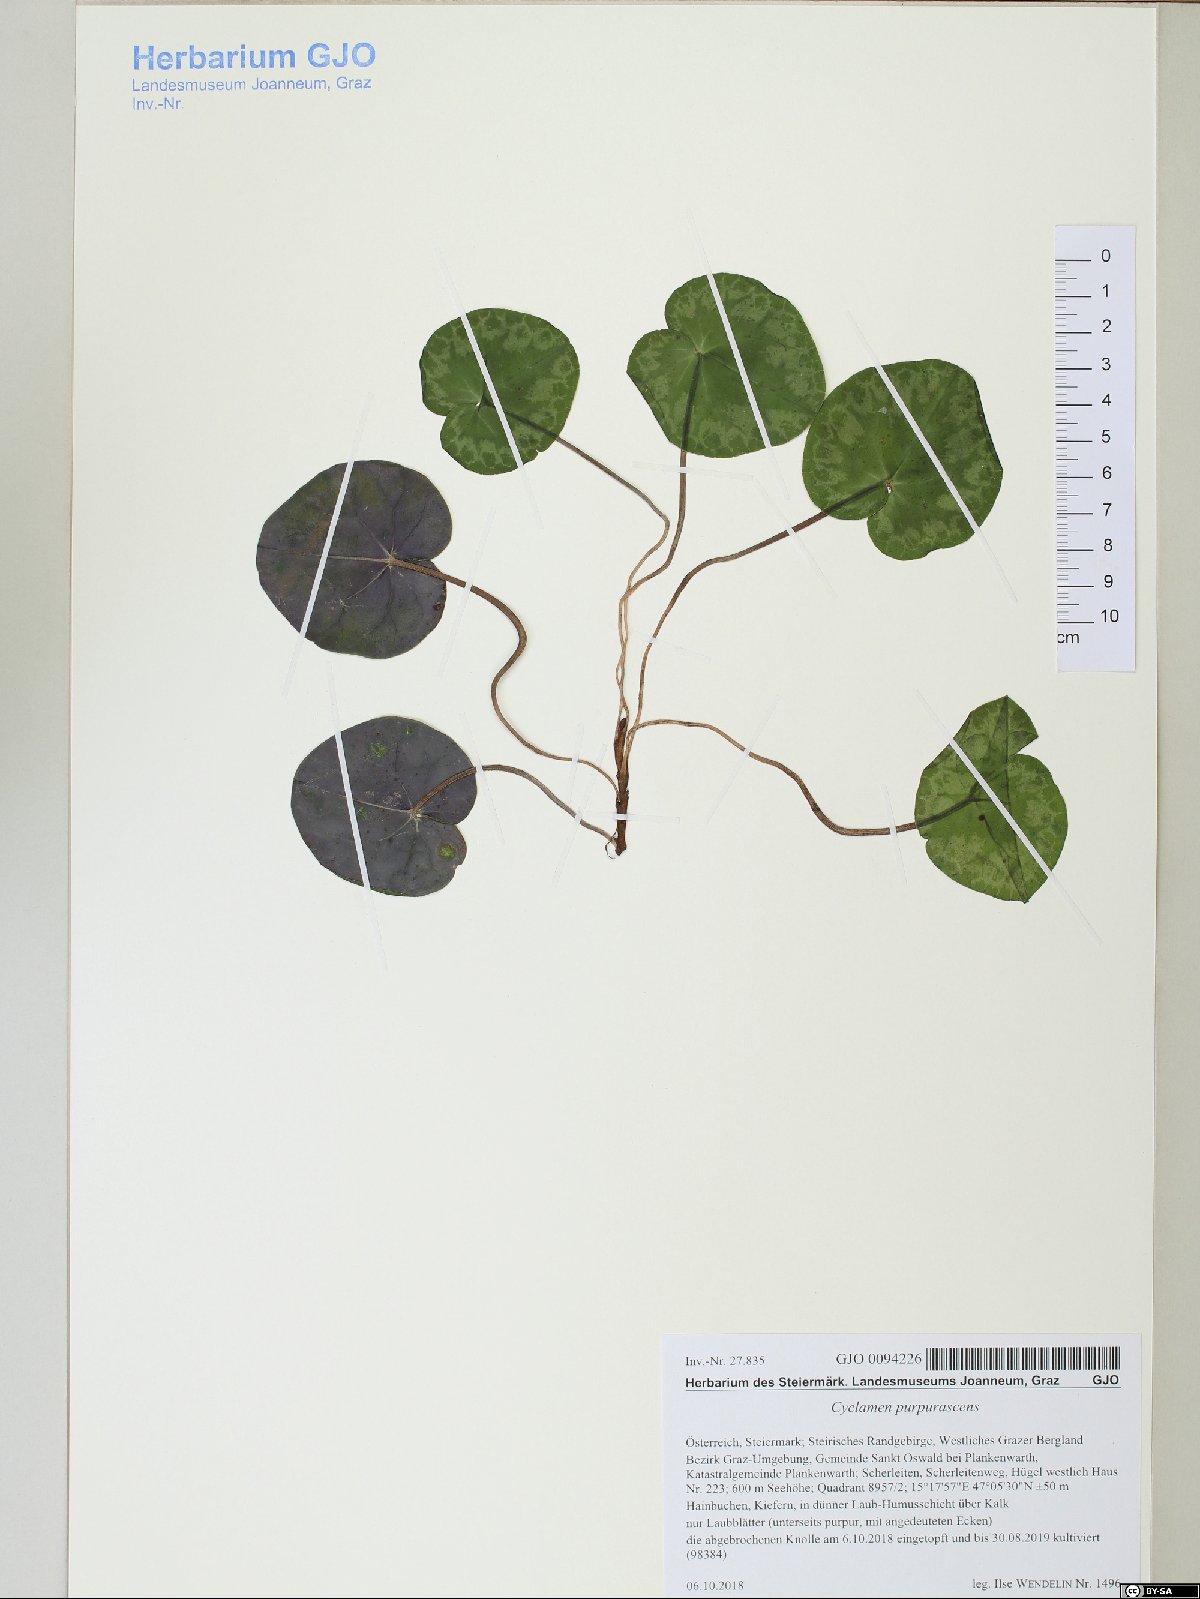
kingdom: Plantae
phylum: Tracheophyta
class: Magnoliopsida
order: Ericales
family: Primulaceae
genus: Cyclamen
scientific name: Cyclamen purpurascens
